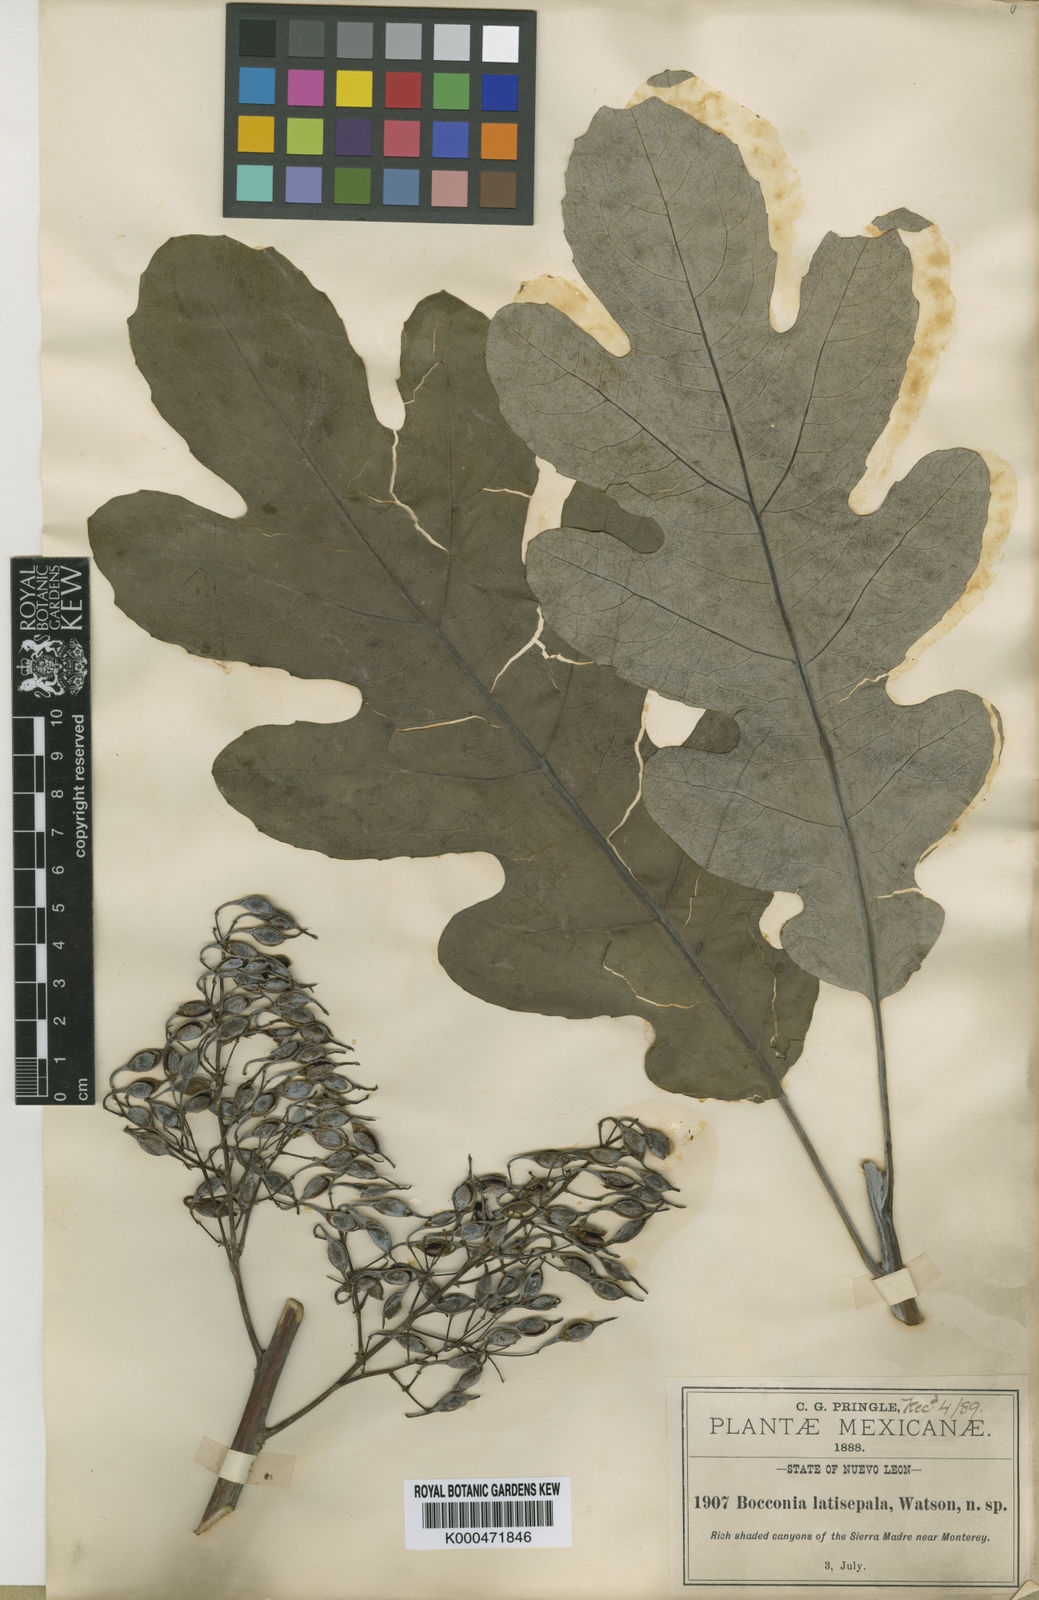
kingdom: Plantae
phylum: Tracheophyta
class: Magnoliopsida
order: Ranunculales
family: Papaveraceae
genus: Bocconia
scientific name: Bocconia frutescens
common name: Tree poppy
